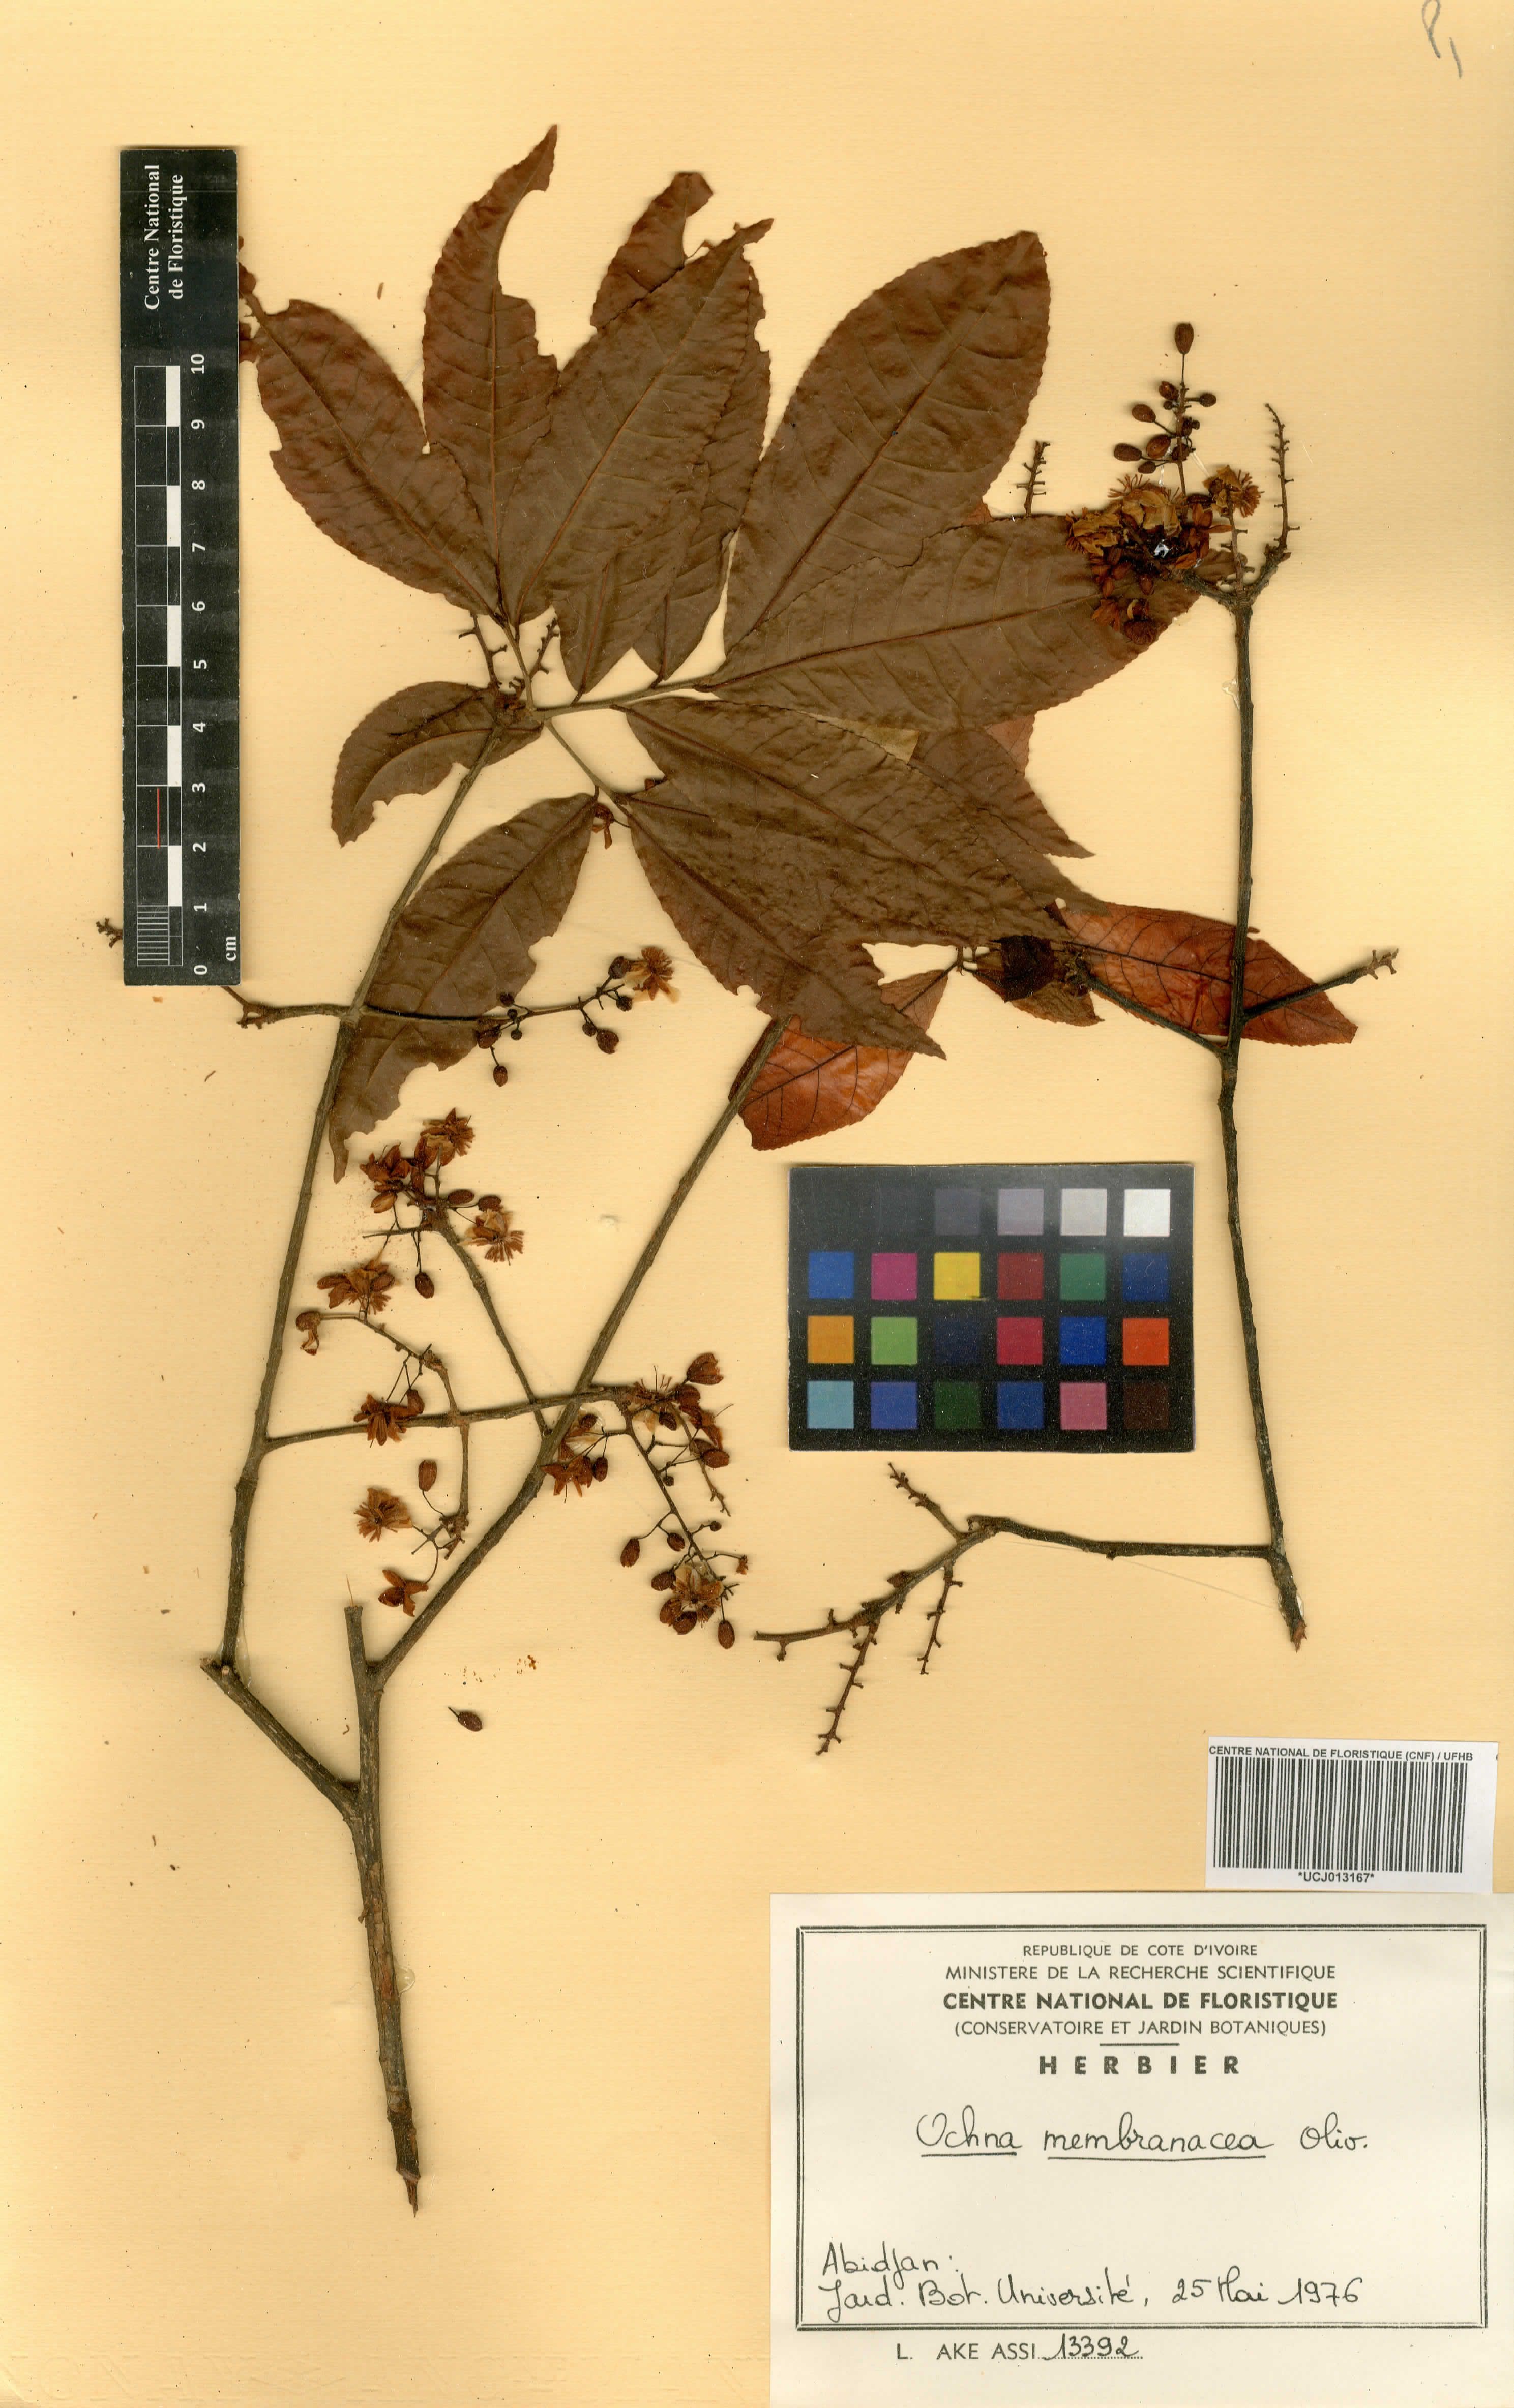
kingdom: Plantae
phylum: Tracheophyta
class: Magnoliopsida
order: Malpighiales
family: Ochnaceae
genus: Ochna
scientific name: Ochna membranacea
